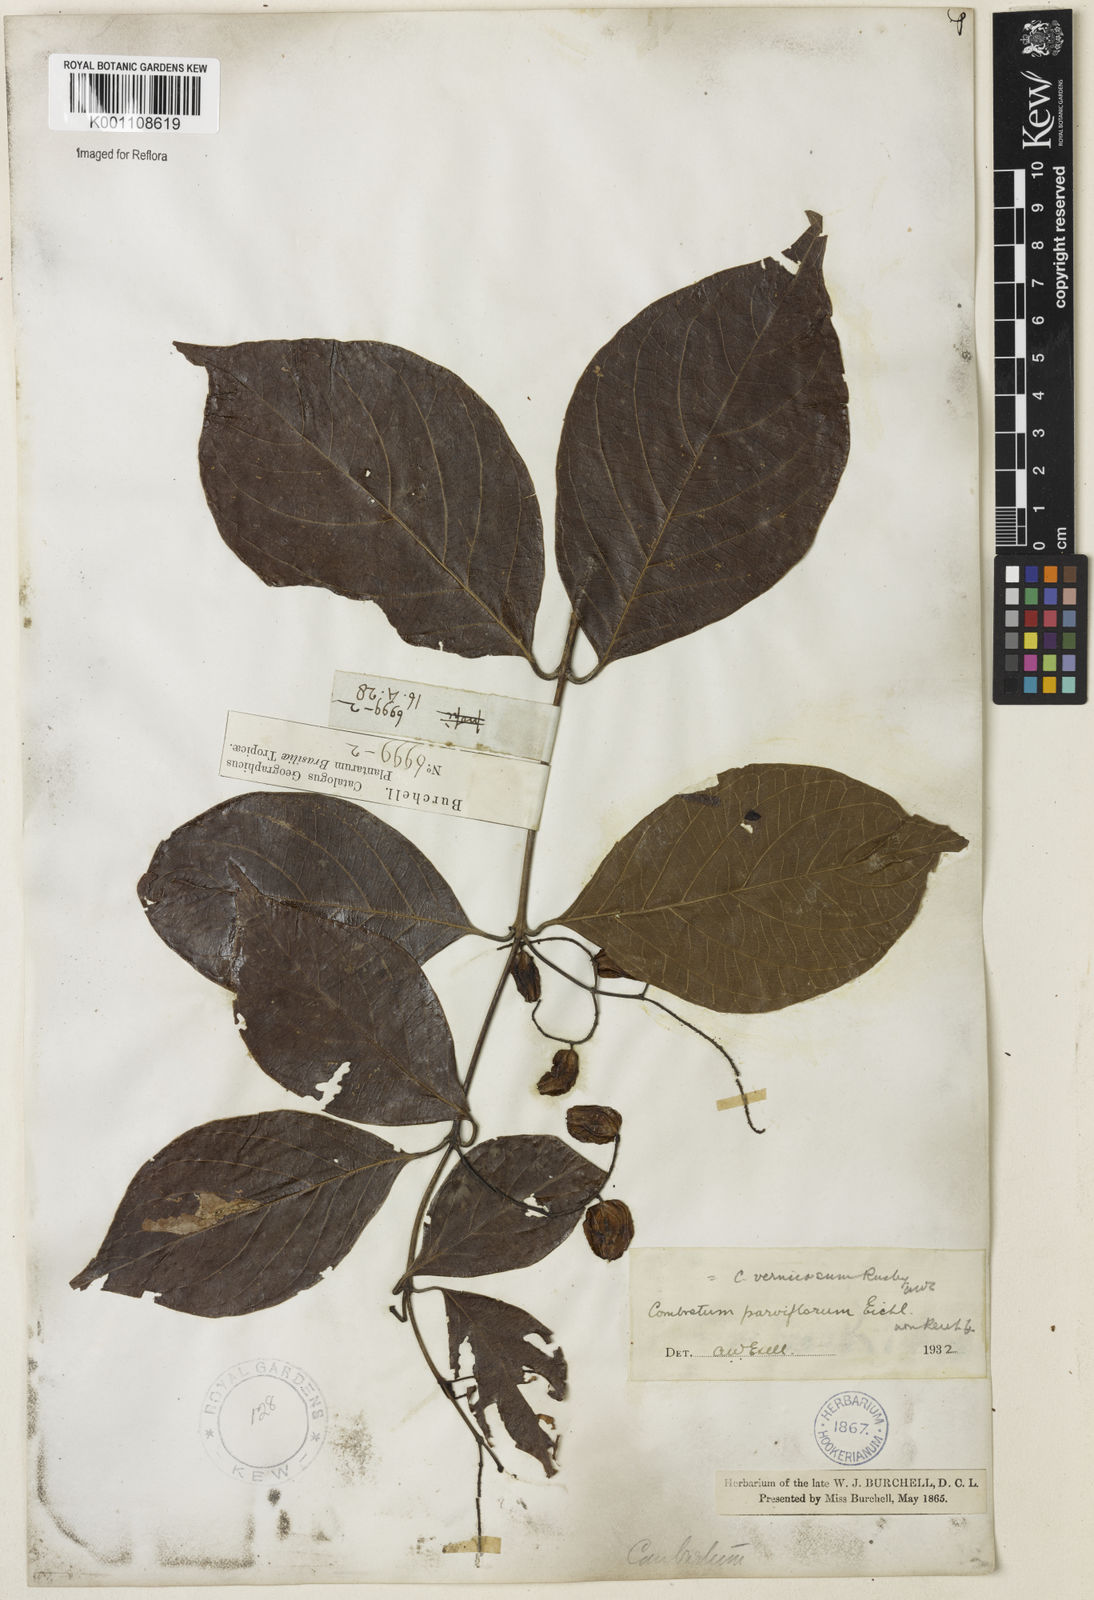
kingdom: Plantae
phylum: Tracheophyta
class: Magnoliopsida
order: Myrtales
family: Combretaceae
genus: Combretum
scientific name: Combretum vernicosum
